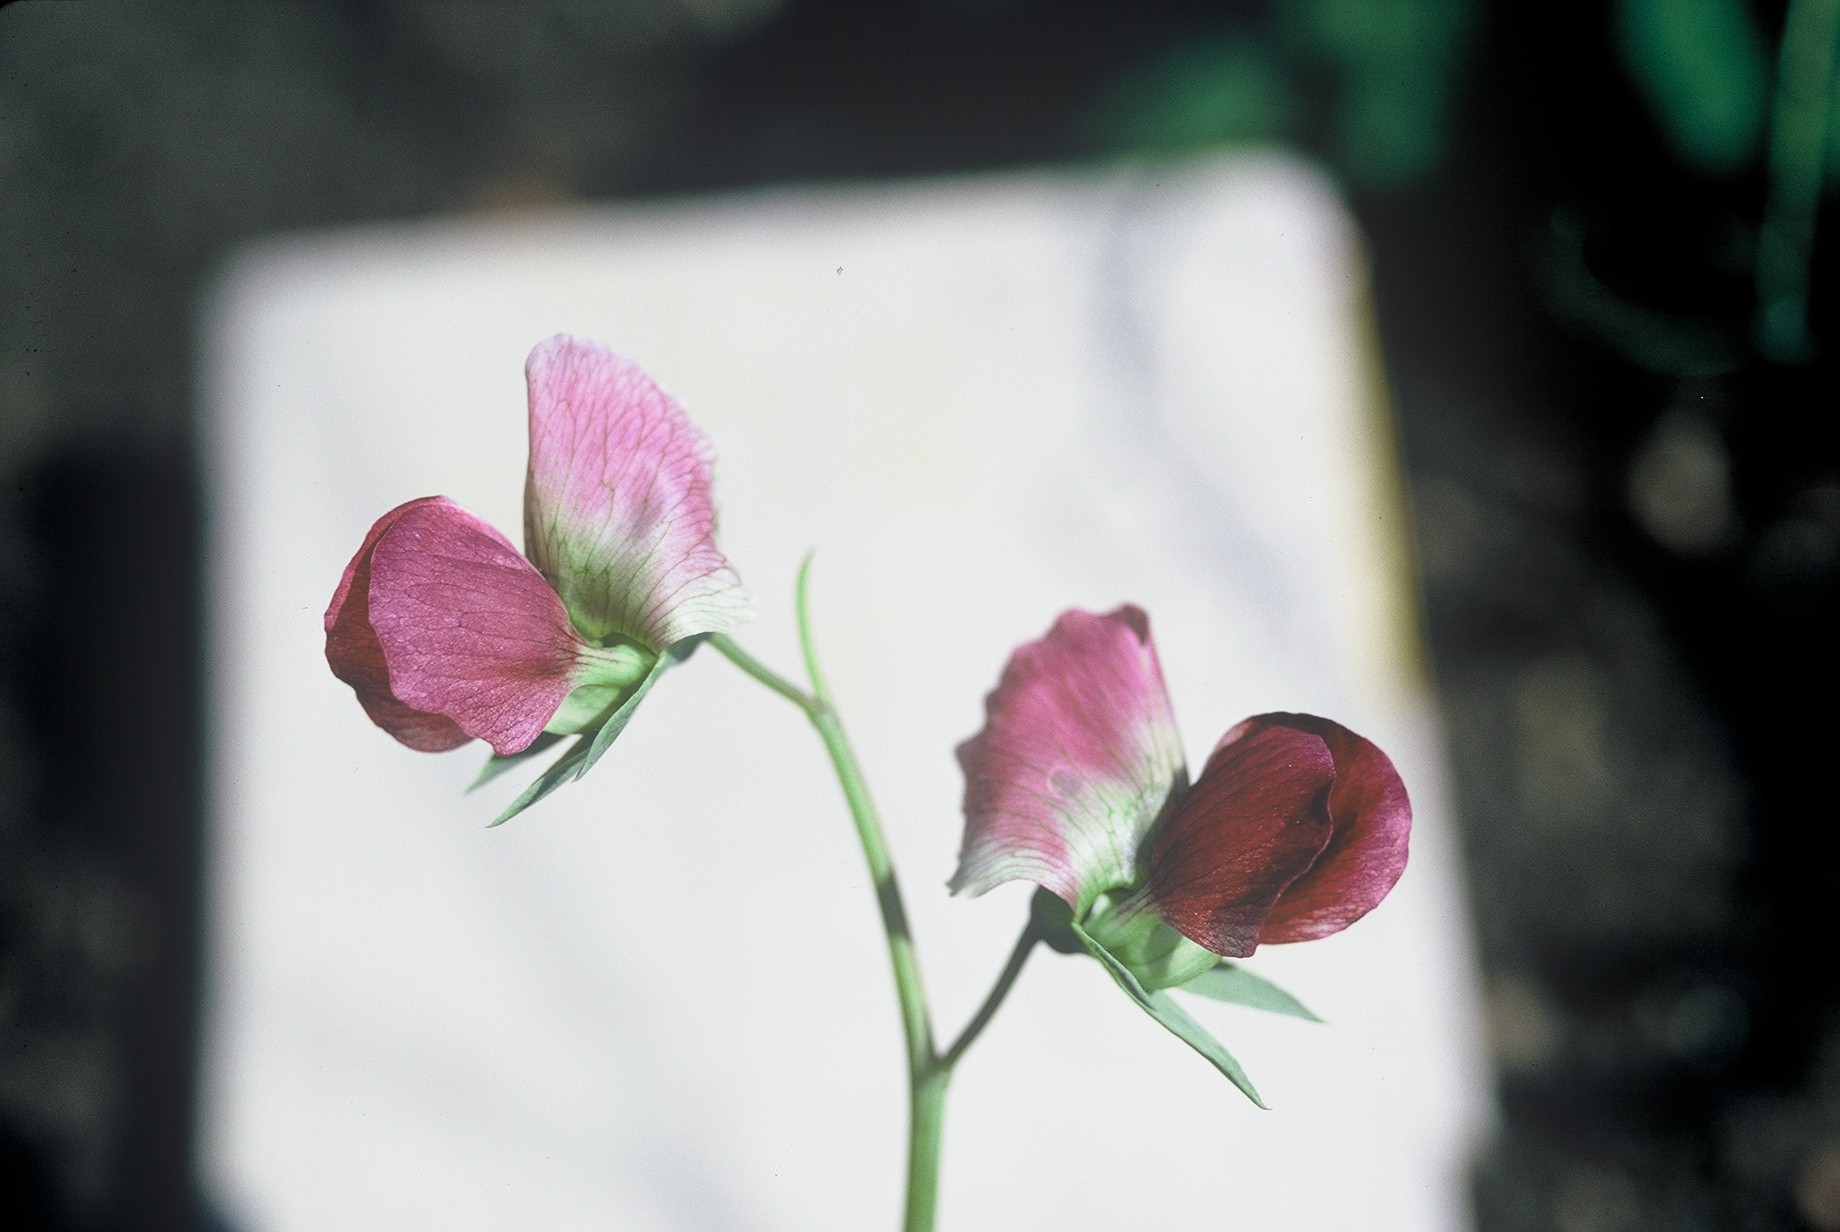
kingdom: Plantae
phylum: Tracheophyta
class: Magnoliopsida
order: Fabales
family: Fabaceae
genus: Lathyrus
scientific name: Lathyrus oleraceus
